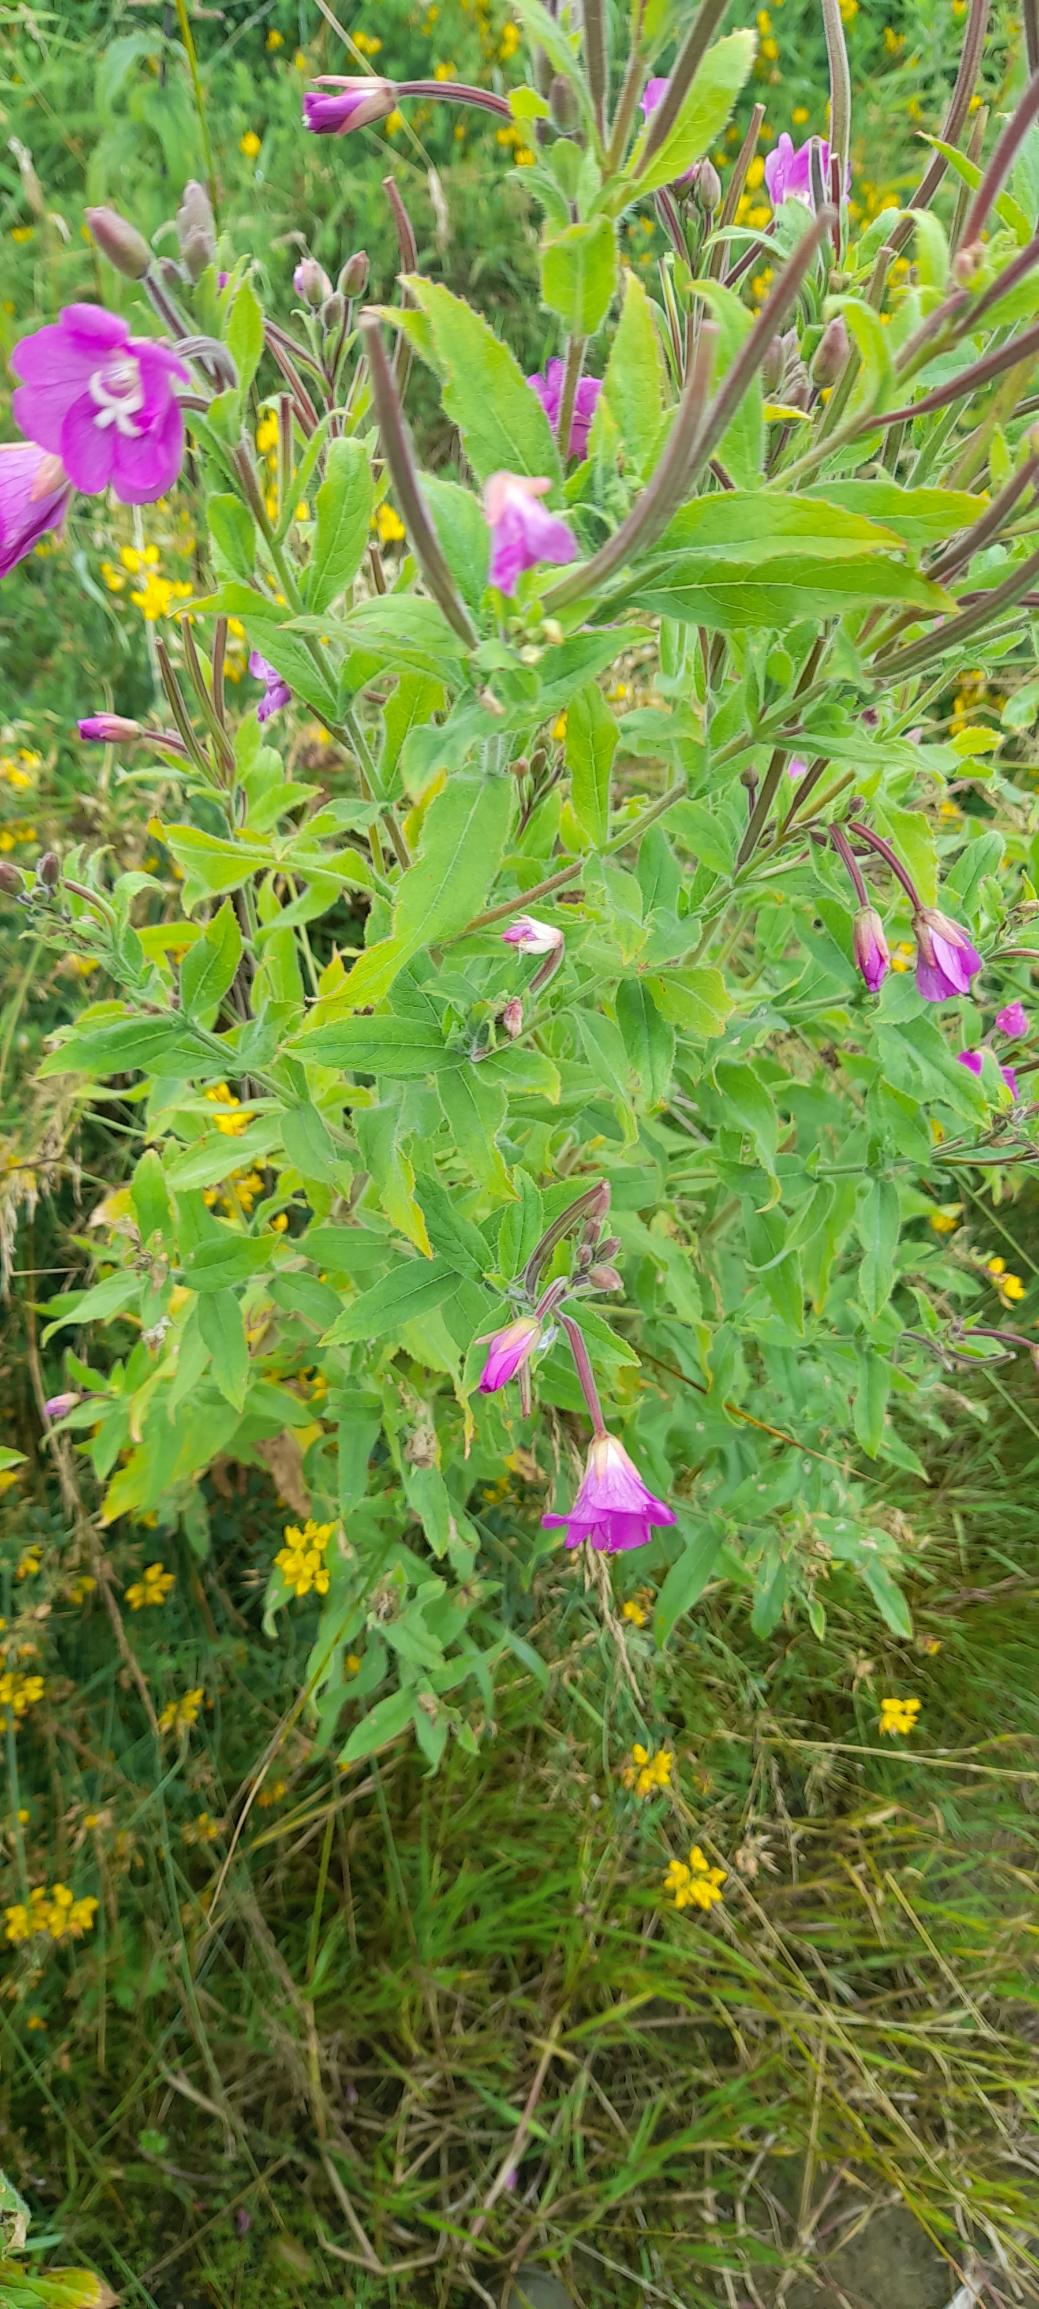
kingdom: Plantae
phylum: Tracheophyta
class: Magnoliopsida
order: Myrtales
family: Onagraceae
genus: Epilobium
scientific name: Epilobium hirsutum
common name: Lådden dueurt
